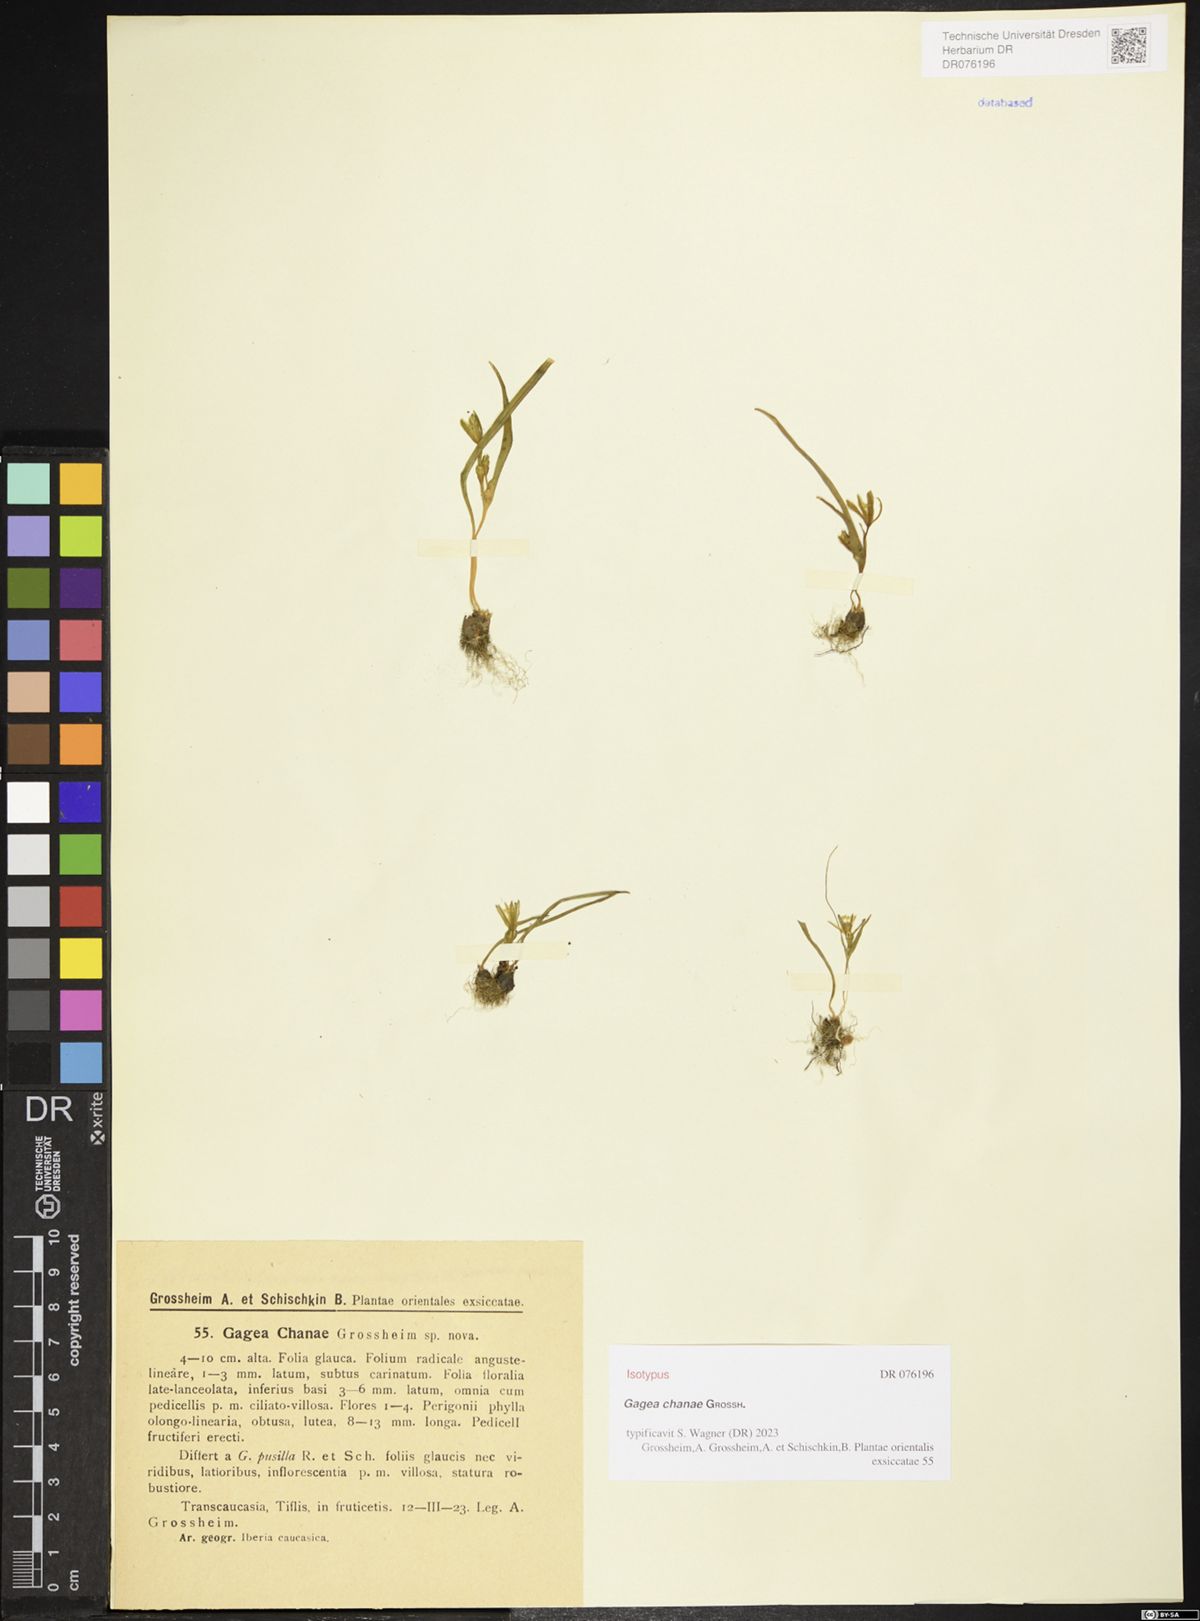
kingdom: Plantae
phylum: Tracheophyta
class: Liliopsida
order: Liliales
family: Liliaceae
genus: Gagea
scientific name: Gagea chanae
